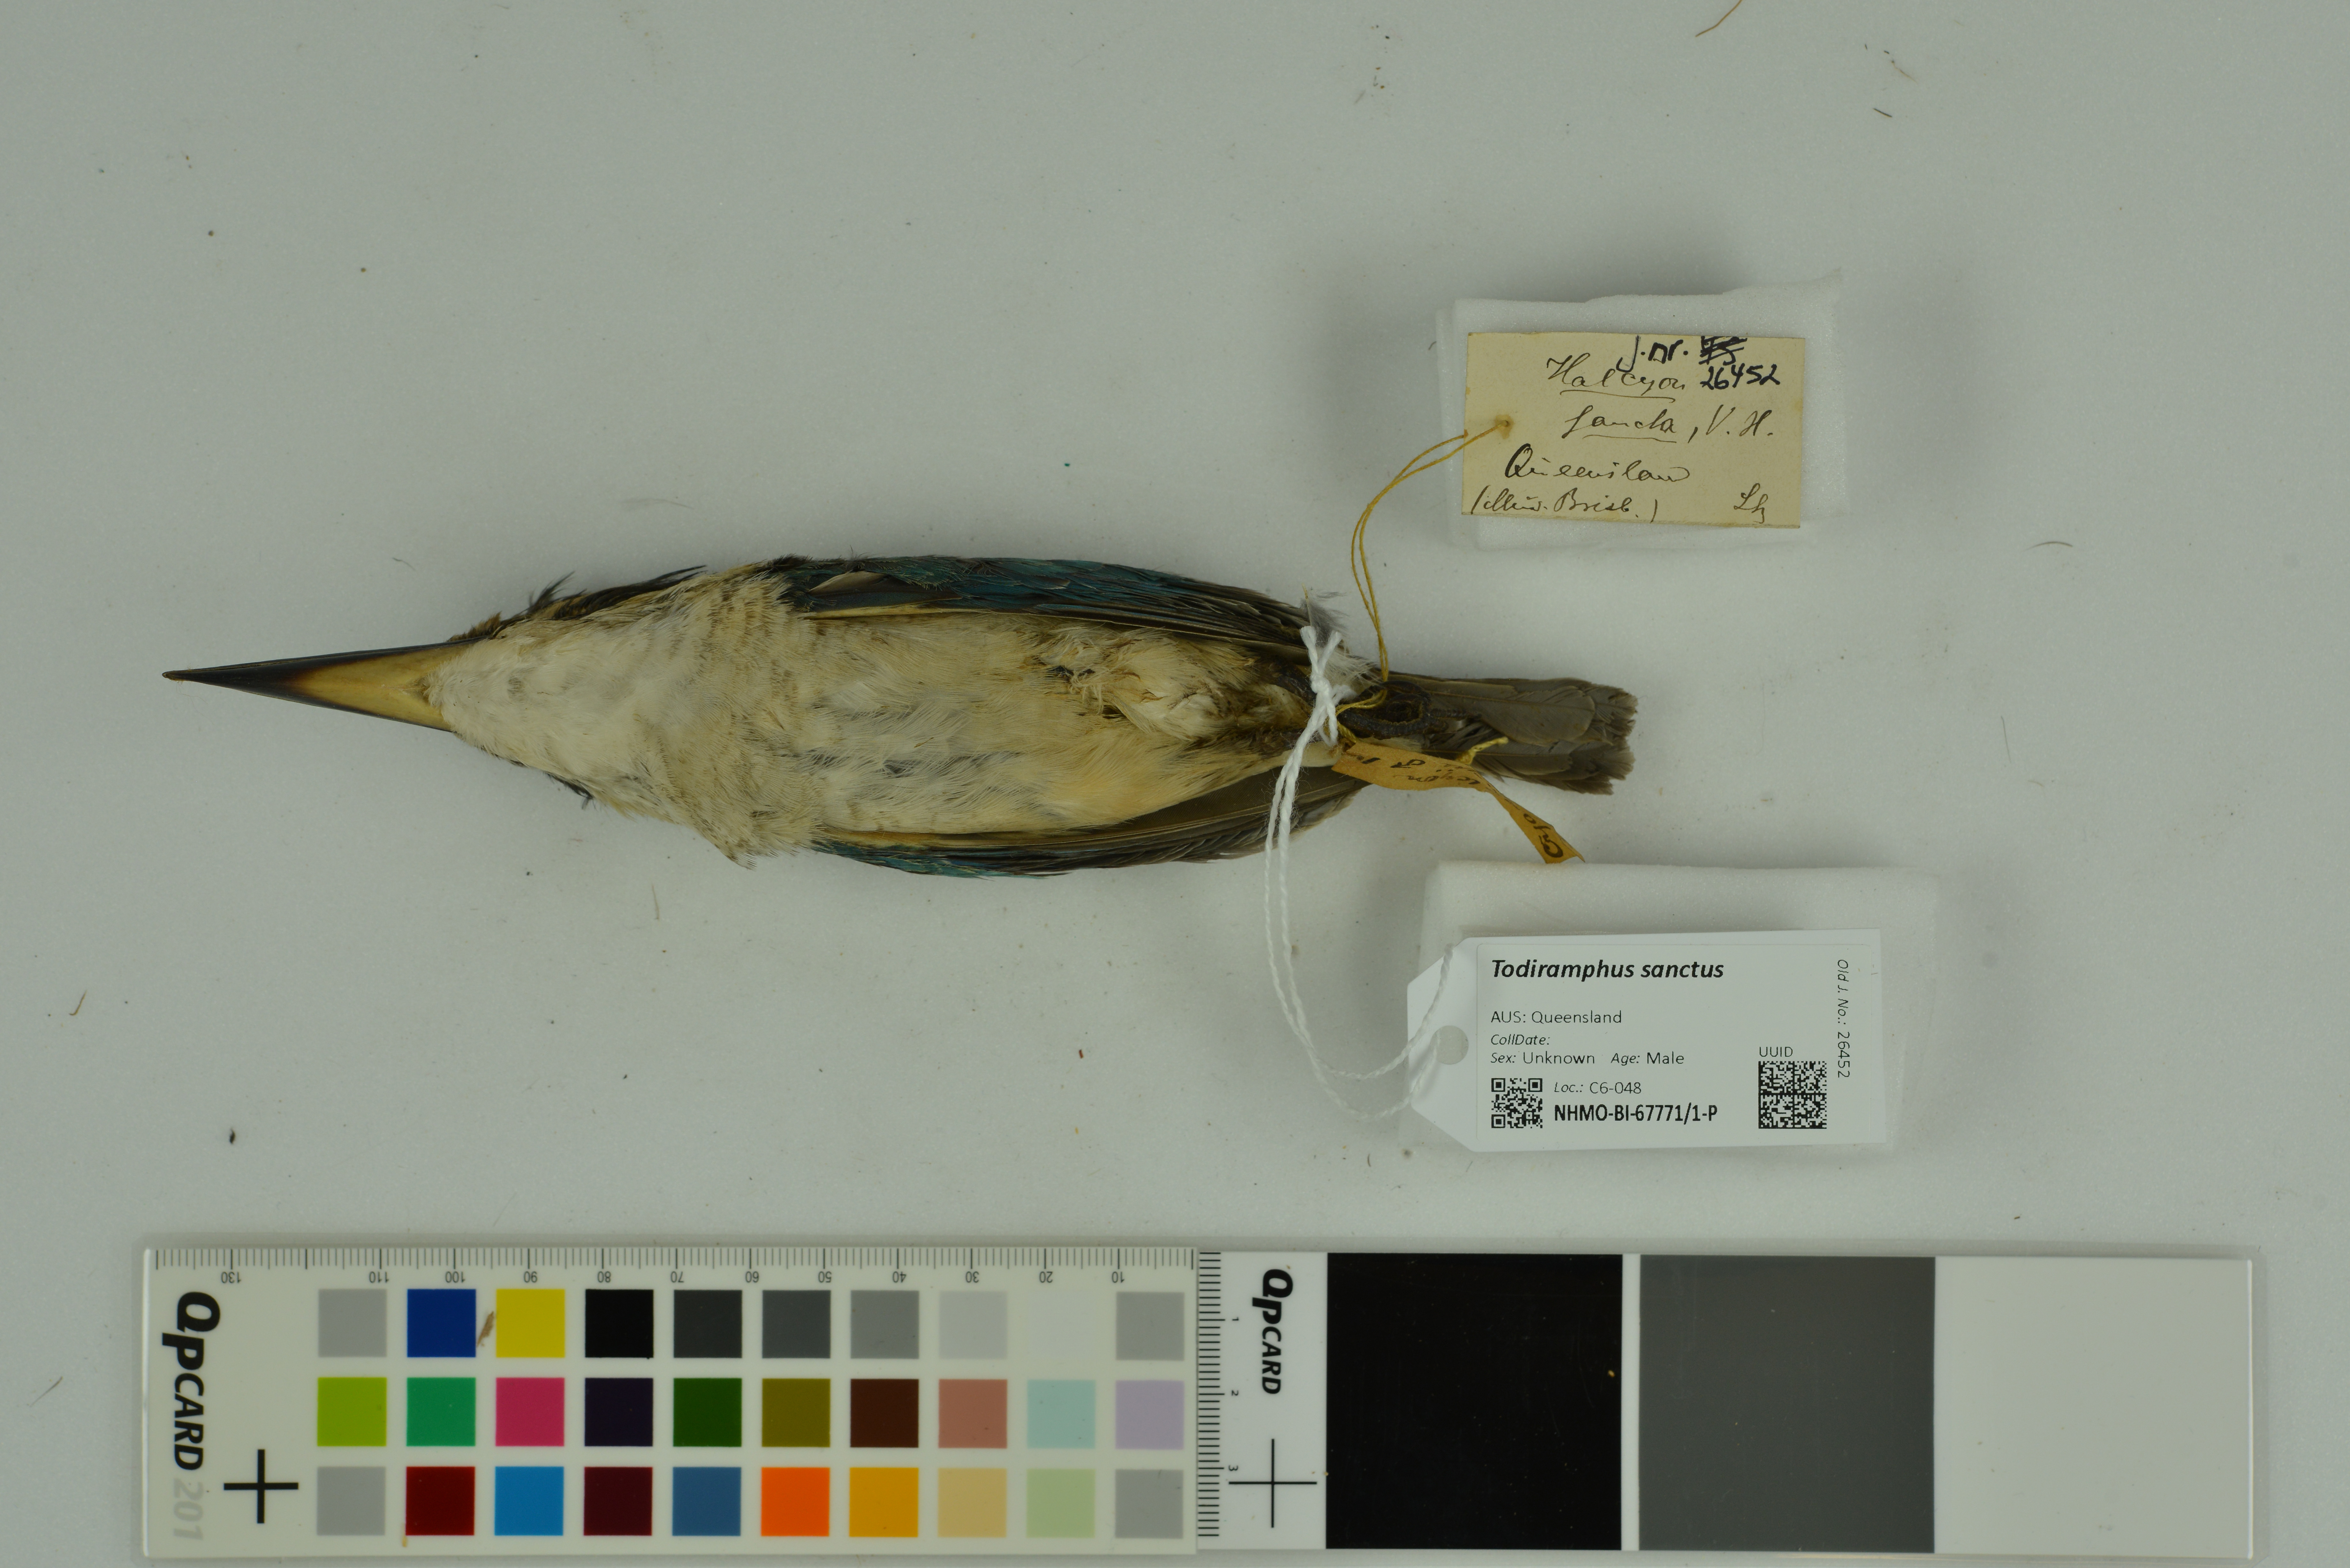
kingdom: Animalia
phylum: Chordata
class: Aves
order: Coraciiformes
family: Alcedinidae
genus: Todiramphus
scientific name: Todiramphus sanctus
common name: Sacred kingfisher
